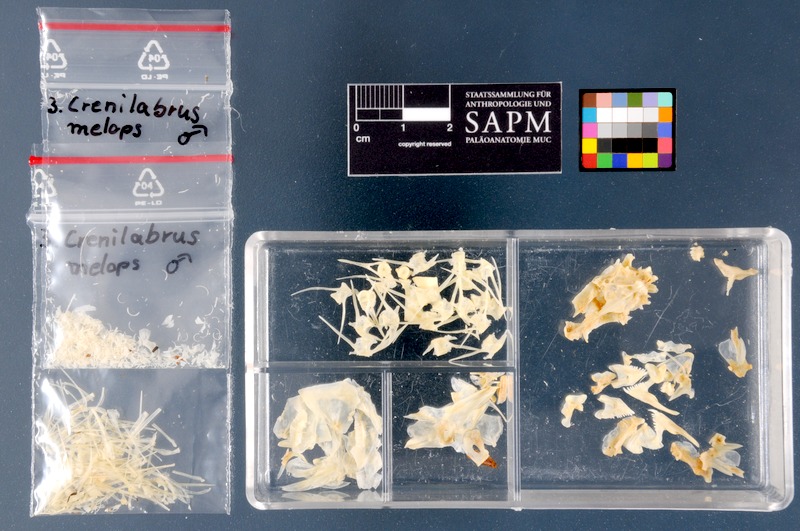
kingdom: Animalia
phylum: Chordata
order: Perciformes
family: Labridae
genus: Symphodus
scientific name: Symphodus melops
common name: Corkwing
